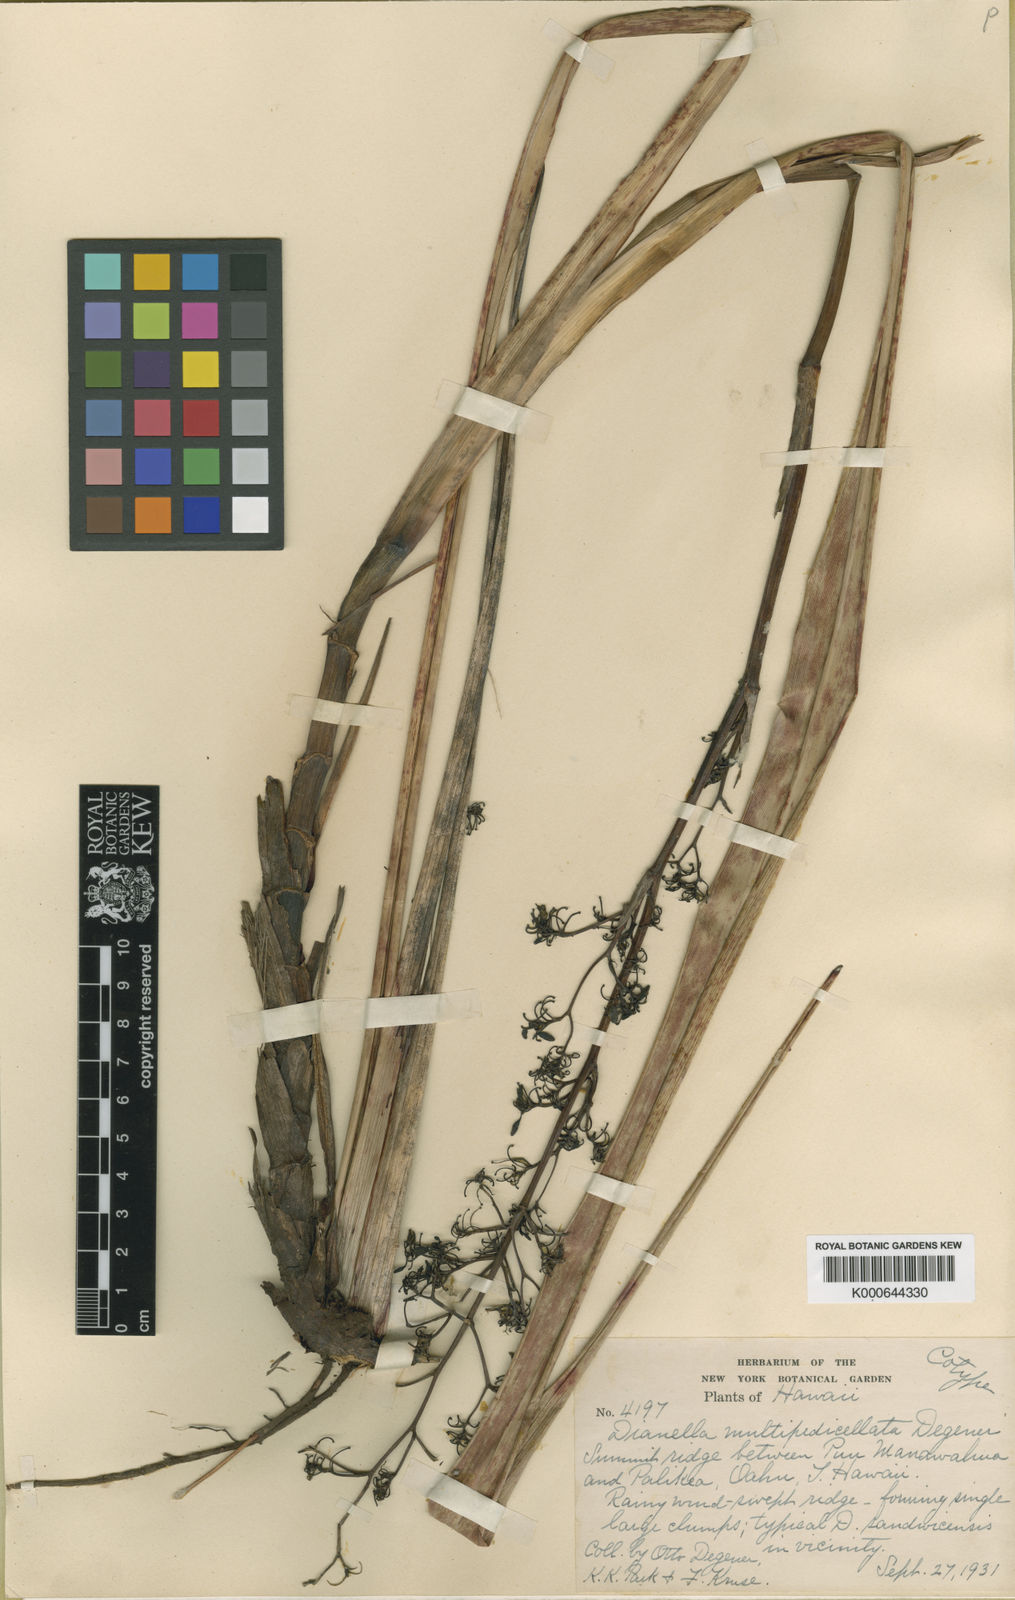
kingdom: Plantae
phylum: Tracheophyta
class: Liliopsida
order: Asparagales
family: Asphodelaceae
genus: Dianella
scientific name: Dianella sandwicensis
